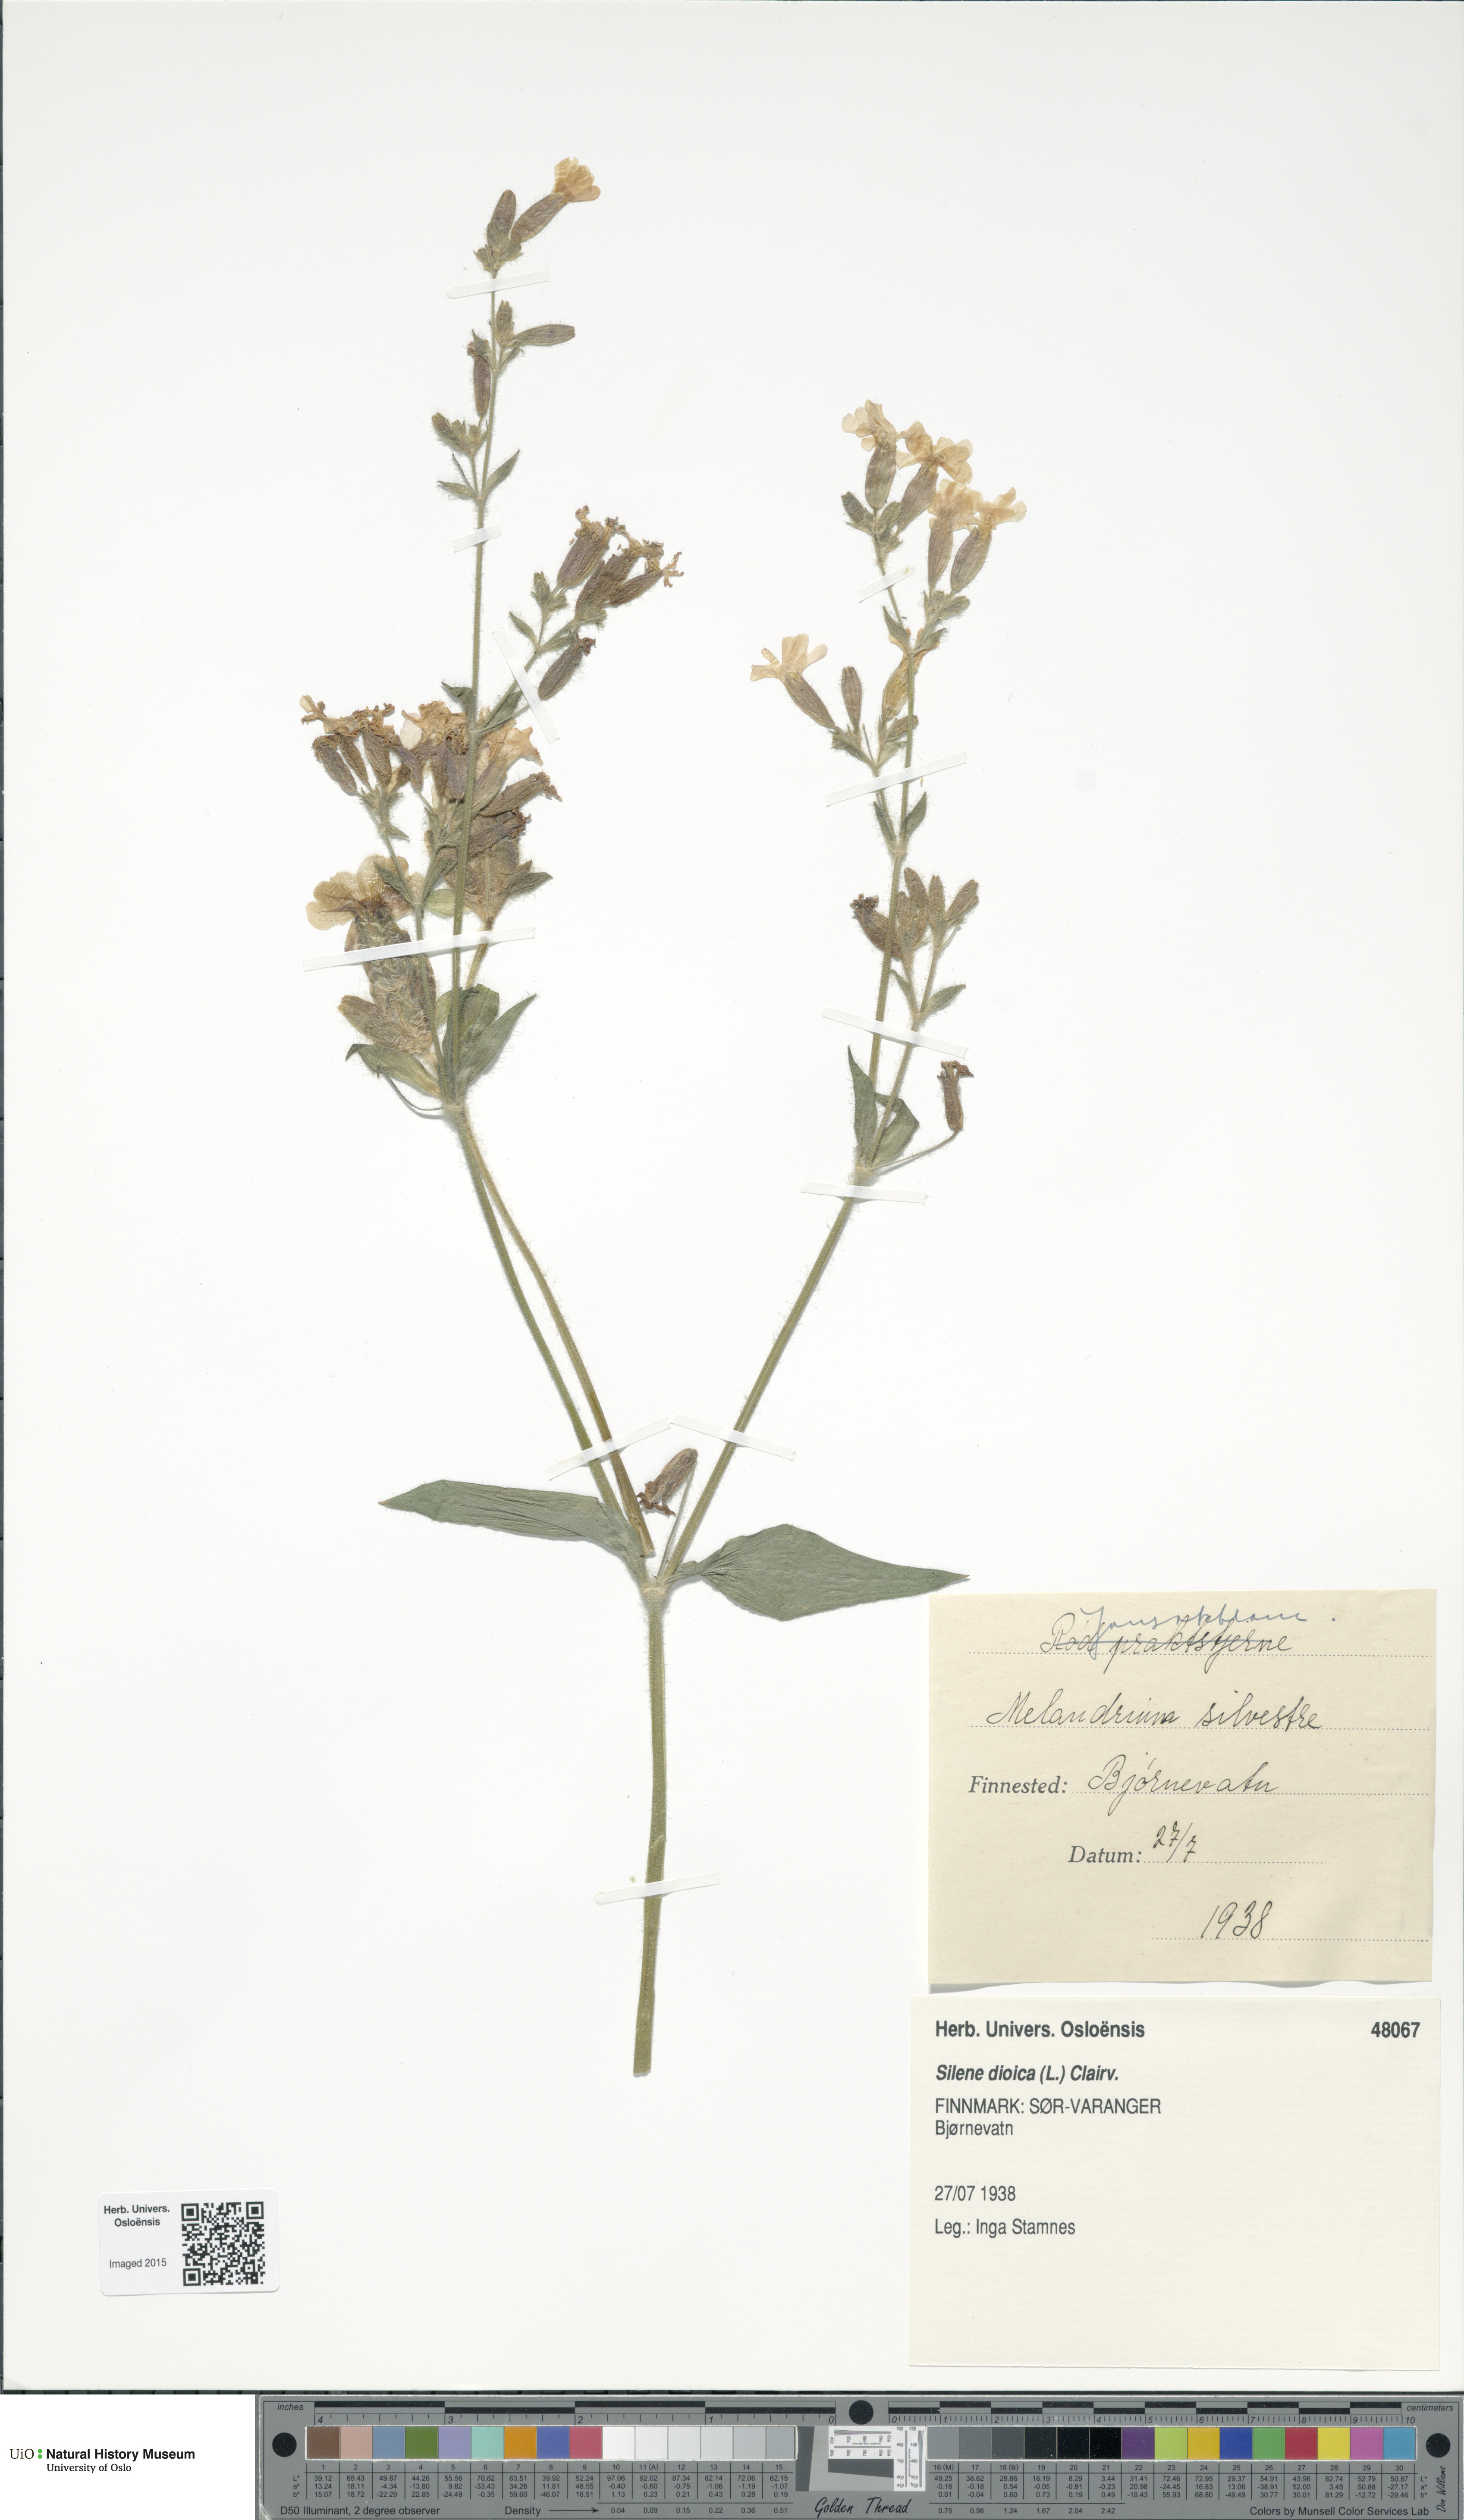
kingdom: Plantae
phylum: Tracheophyta
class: Magnoliopsida
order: Caryophyllales
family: Caryophyllaceae
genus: Silene
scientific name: Silene dioica
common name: Red campion
